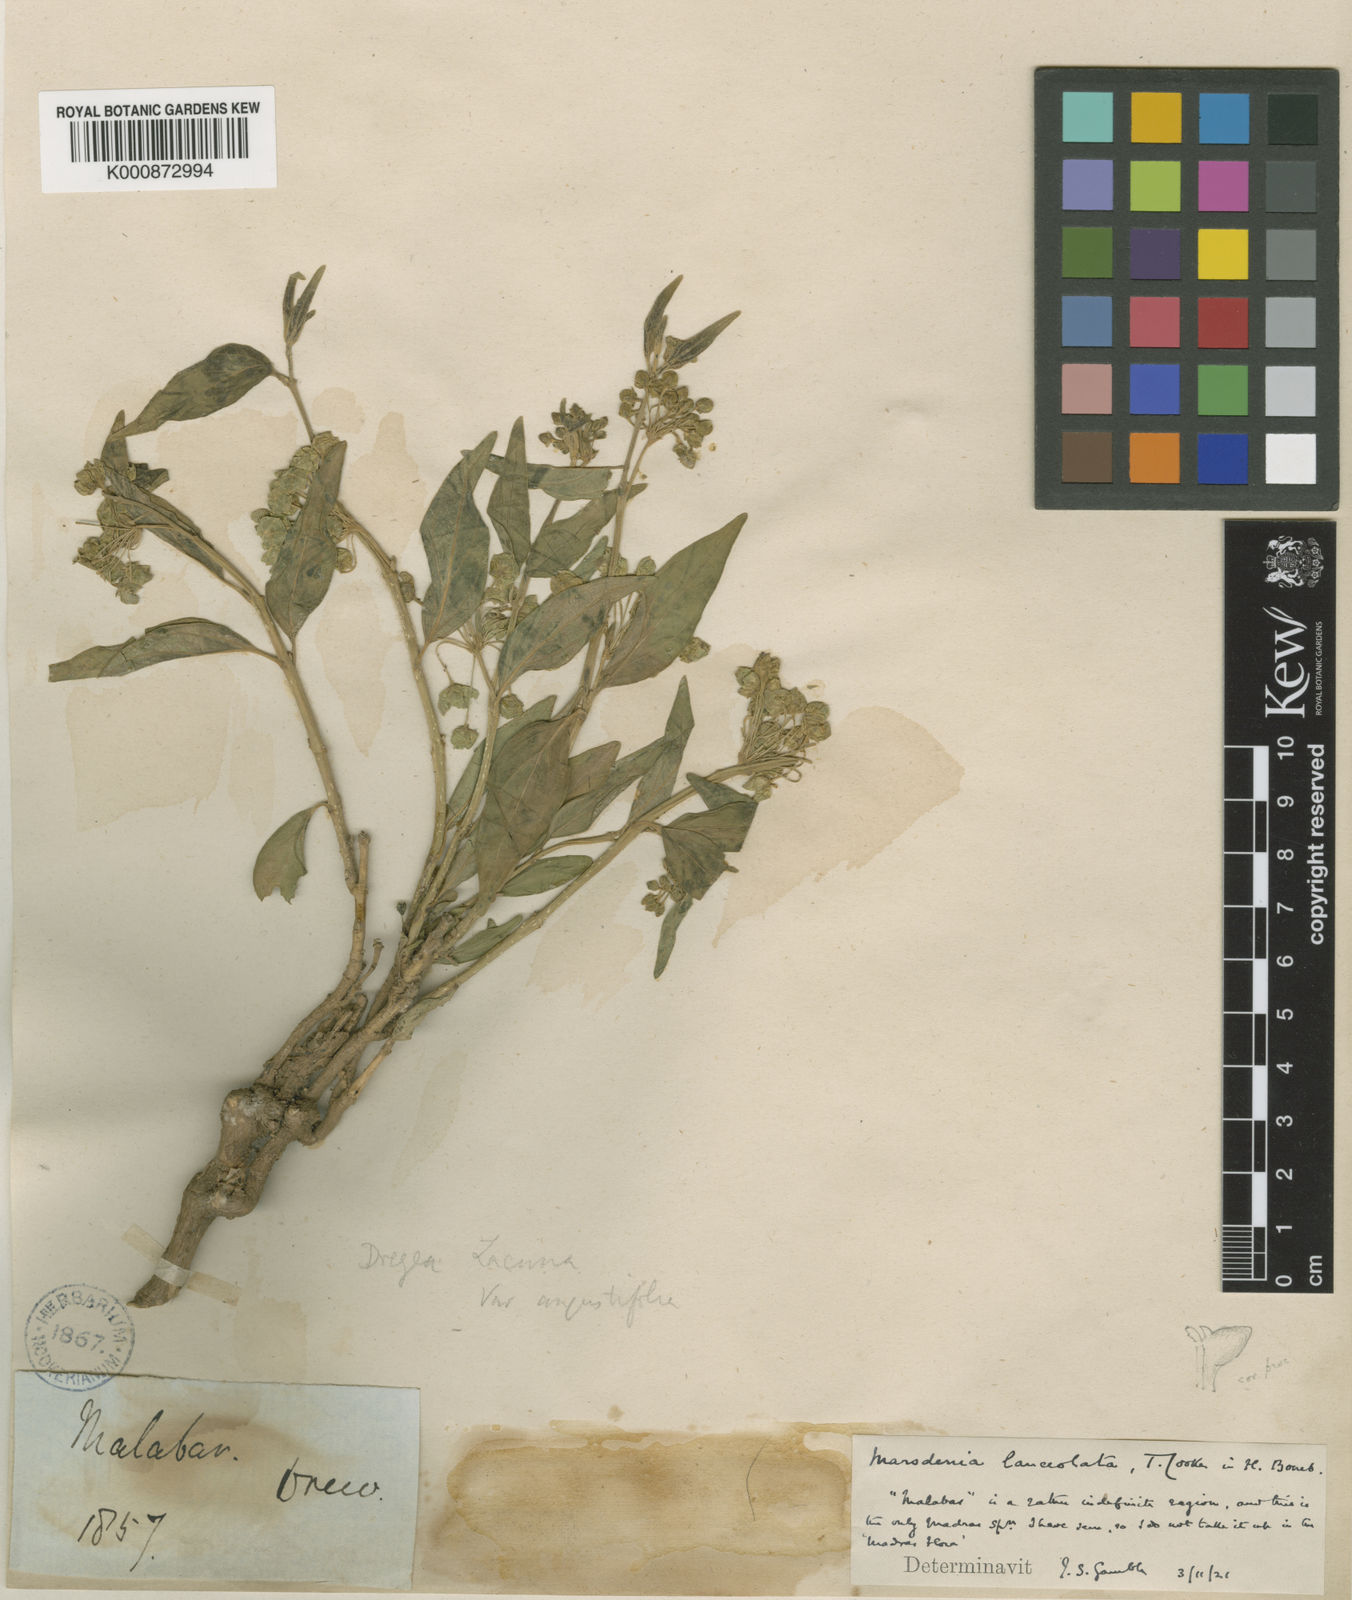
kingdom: Plantae
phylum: Tracheophyta
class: Magnoliopsida
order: Gentianales
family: Apocynaceae
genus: Stephanotis
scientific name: Stephanotis volubilis
